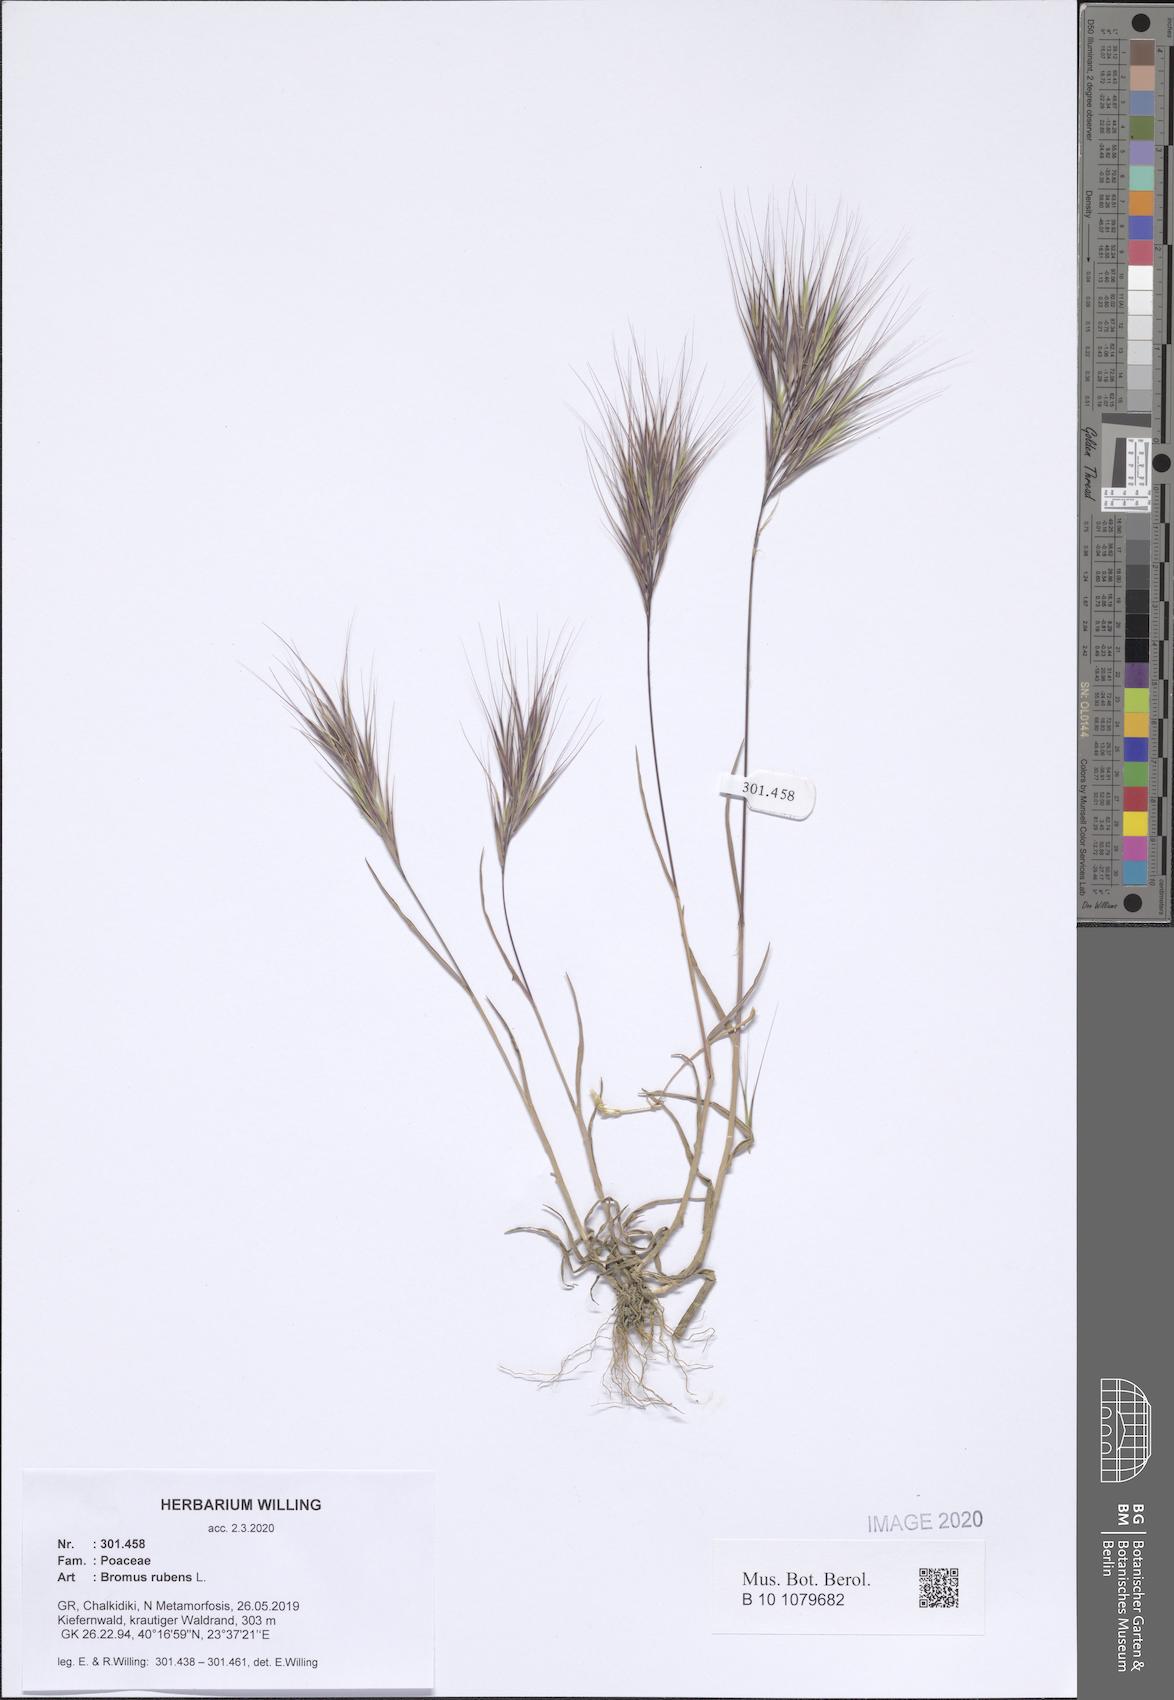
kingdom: Plantae
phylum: Tracheophyta
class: Liliopsida
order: Poales
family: Poaceae
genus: Bromus
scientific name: Bromus rubens
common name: Red brome
